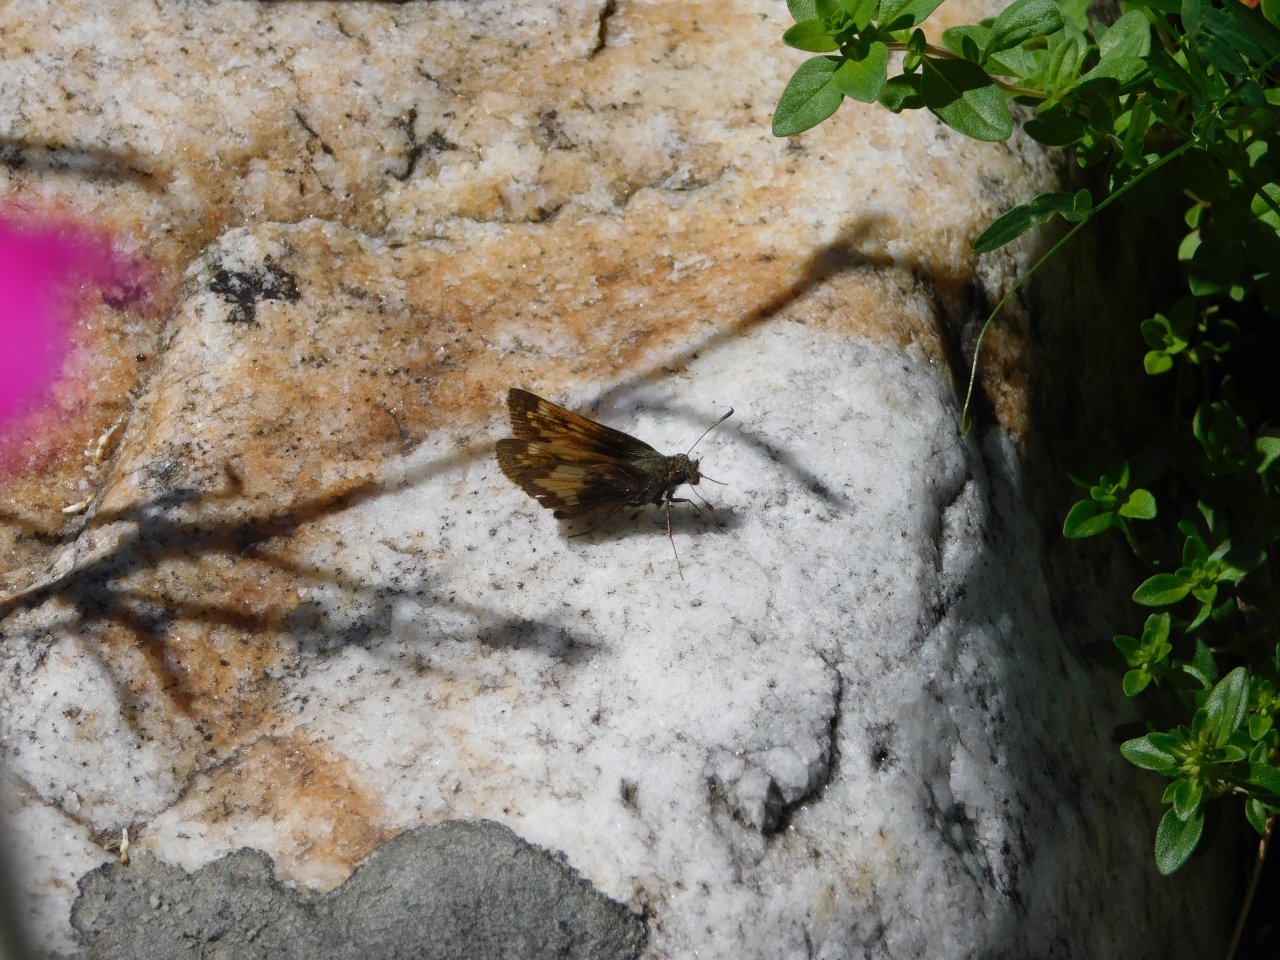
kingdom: Animalia
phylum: Arthropoda
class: Insecta
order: Lepidoptera
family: Hesperiidae
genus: Lon
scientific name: Lon hobomok
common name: Hobomok Skipper
